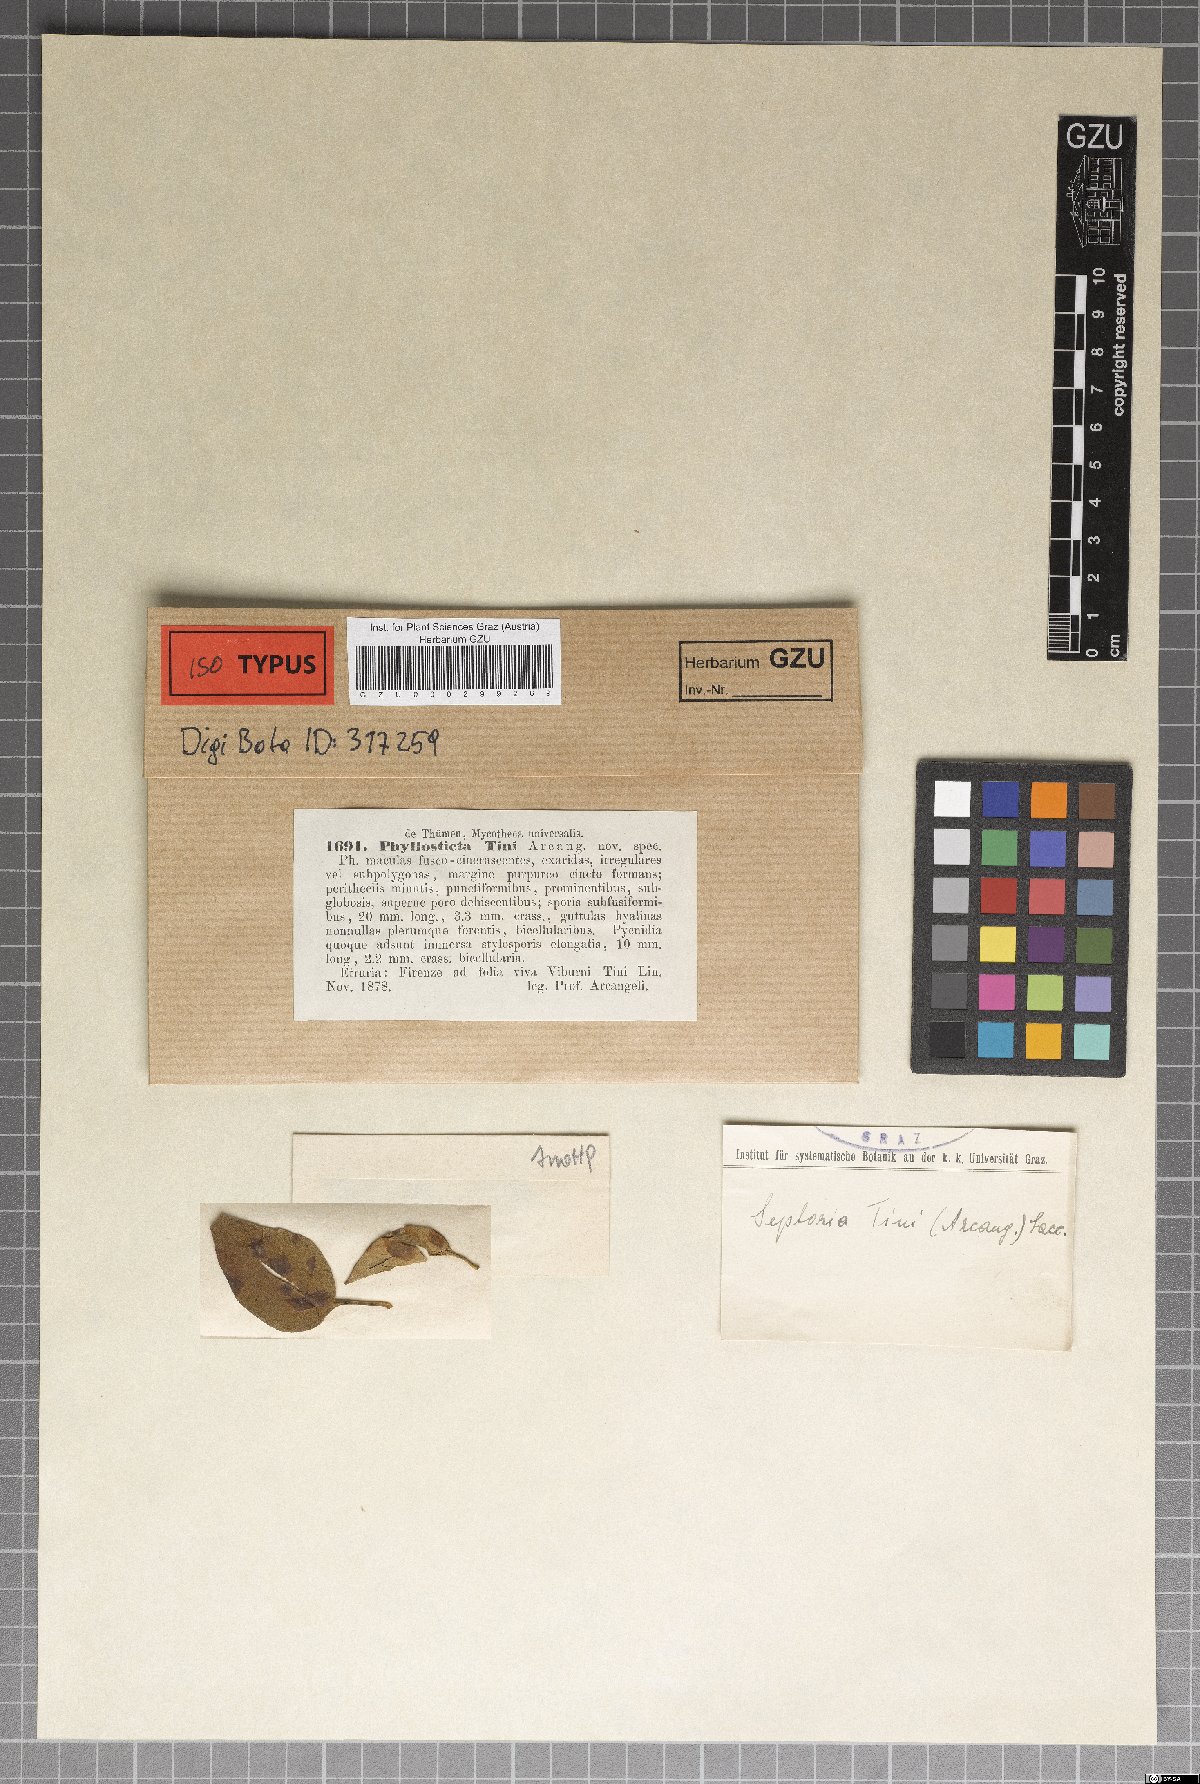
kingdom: Fungi
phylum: Ascomycota
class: Dothideomycetes
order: Botryosphaeriales
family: Botryosphaeriaceae
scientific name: Botryosphaeriaceae
